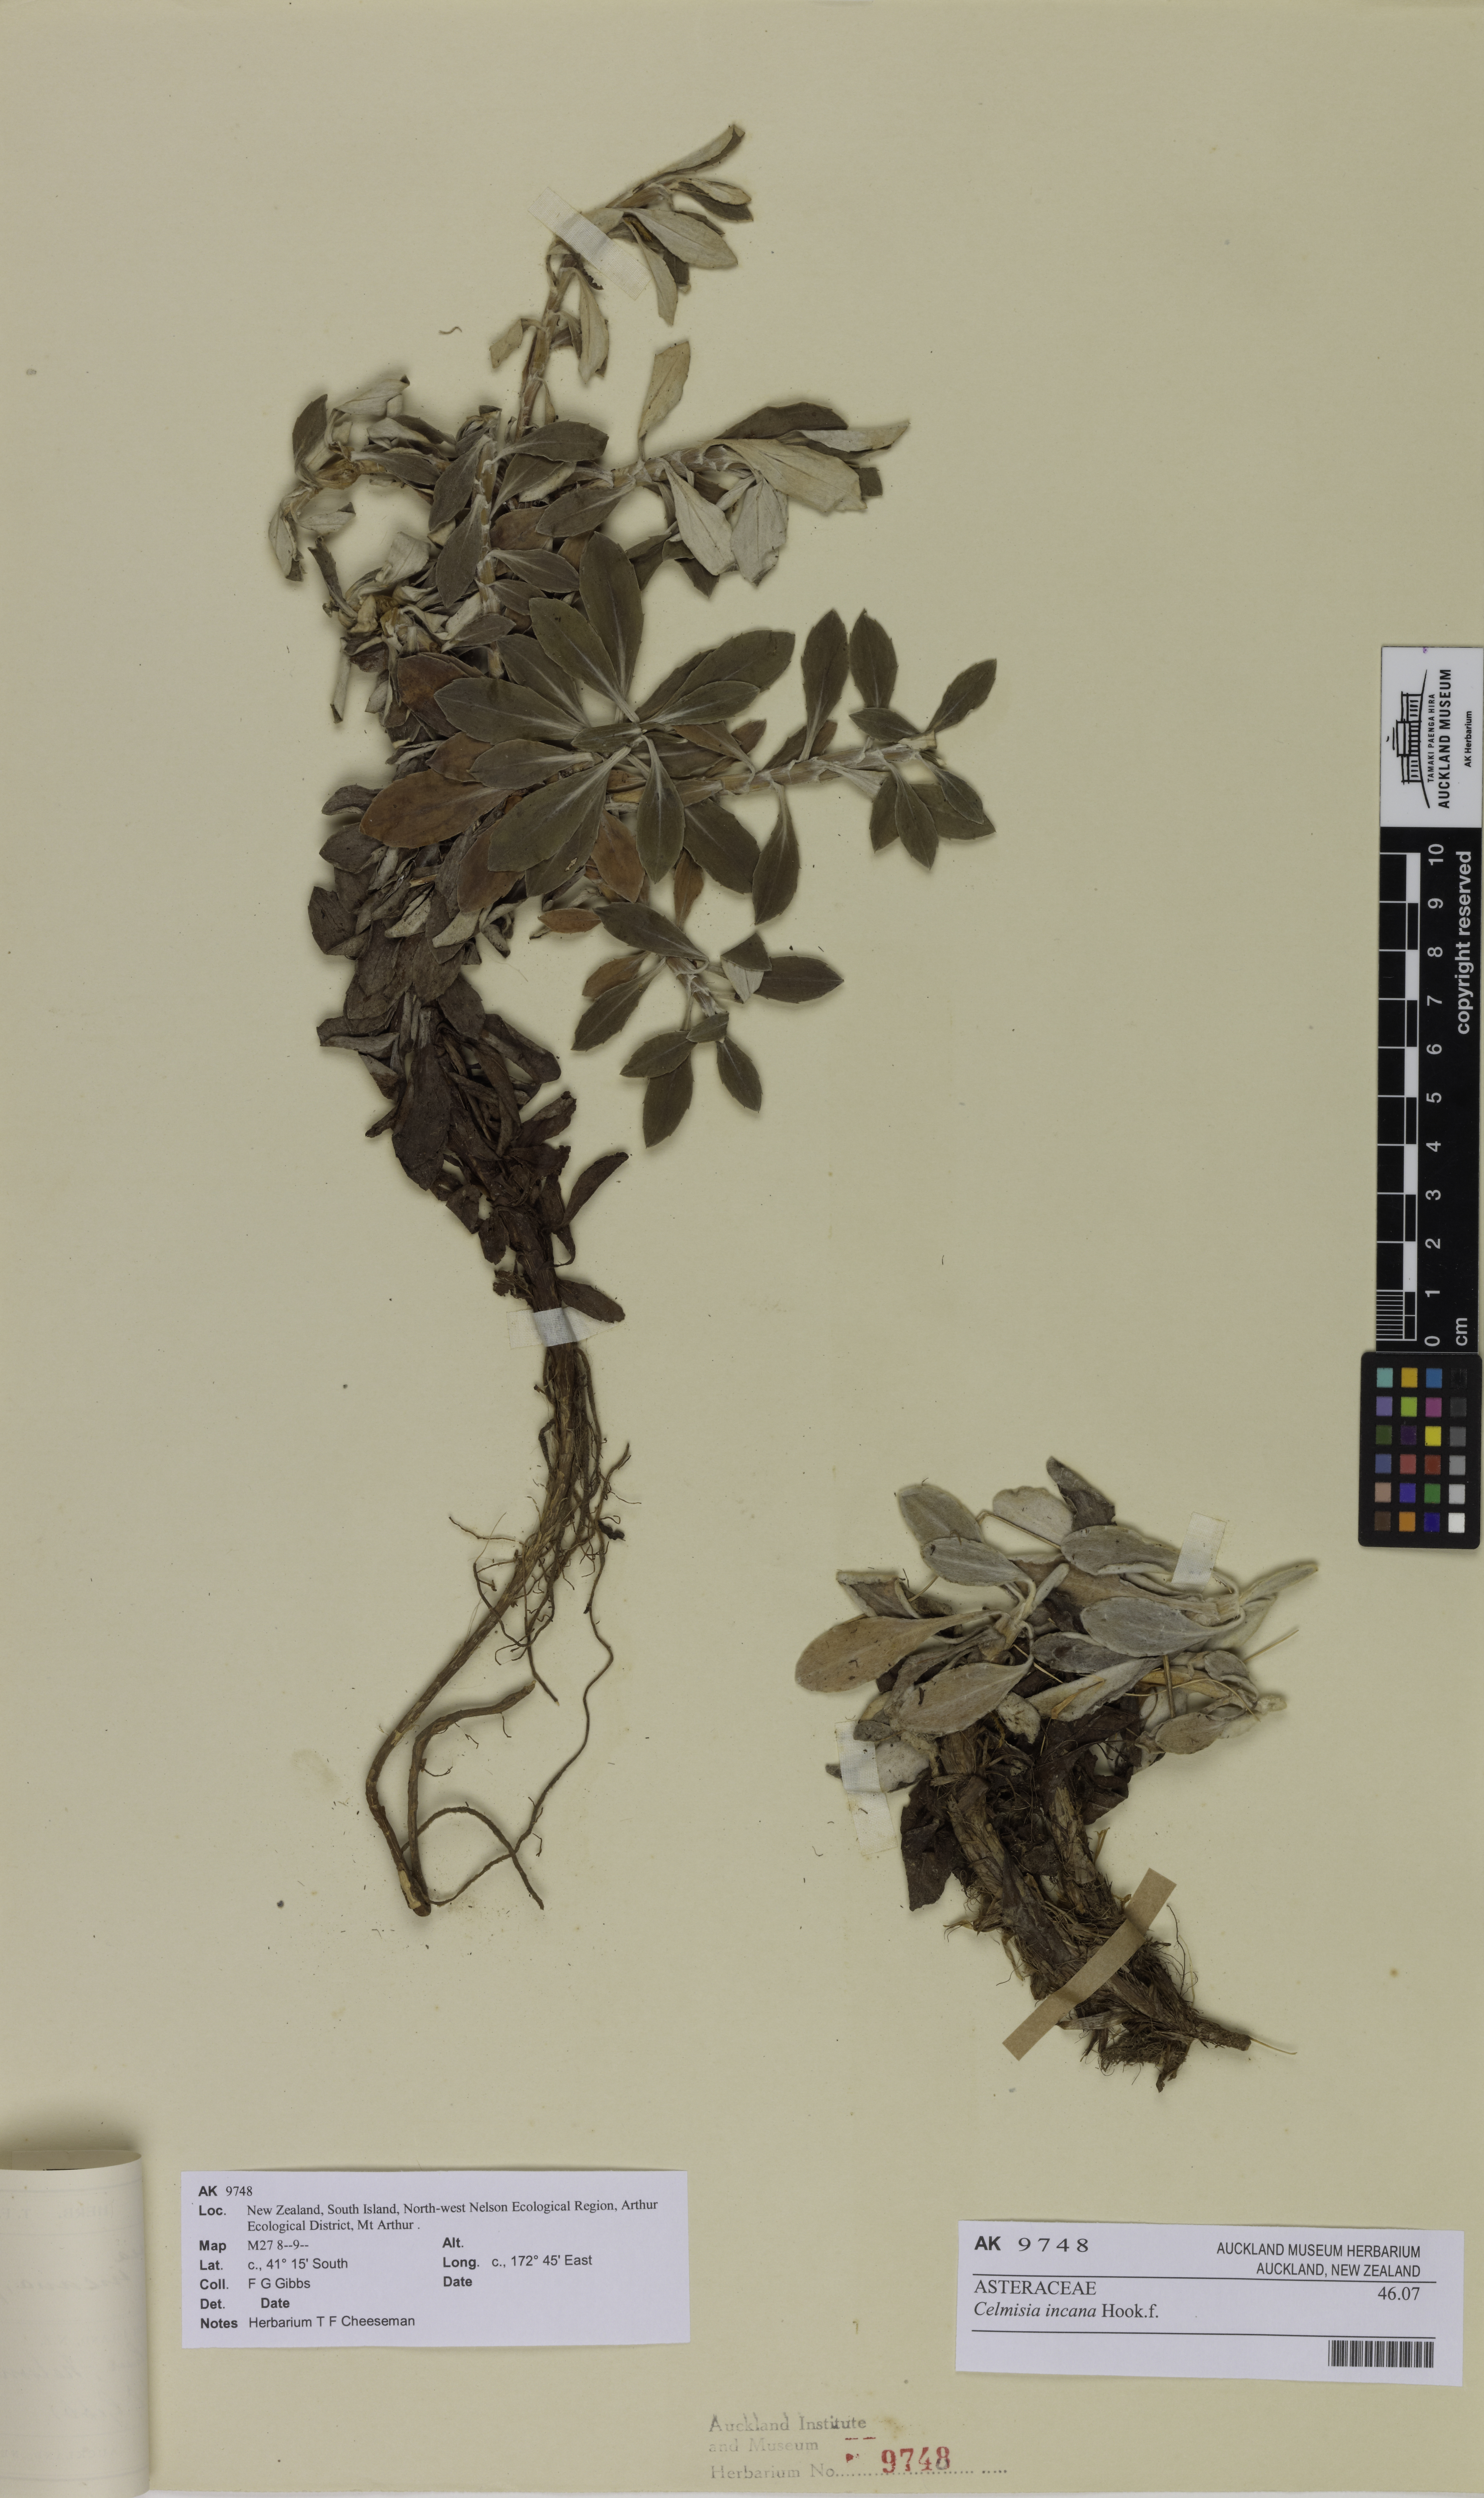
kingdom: Plantae
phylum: Tracheophyta
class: Magnoliopsida
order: Asterales
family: Asteraceae
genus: Celmisia
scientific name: Celmisia incana
